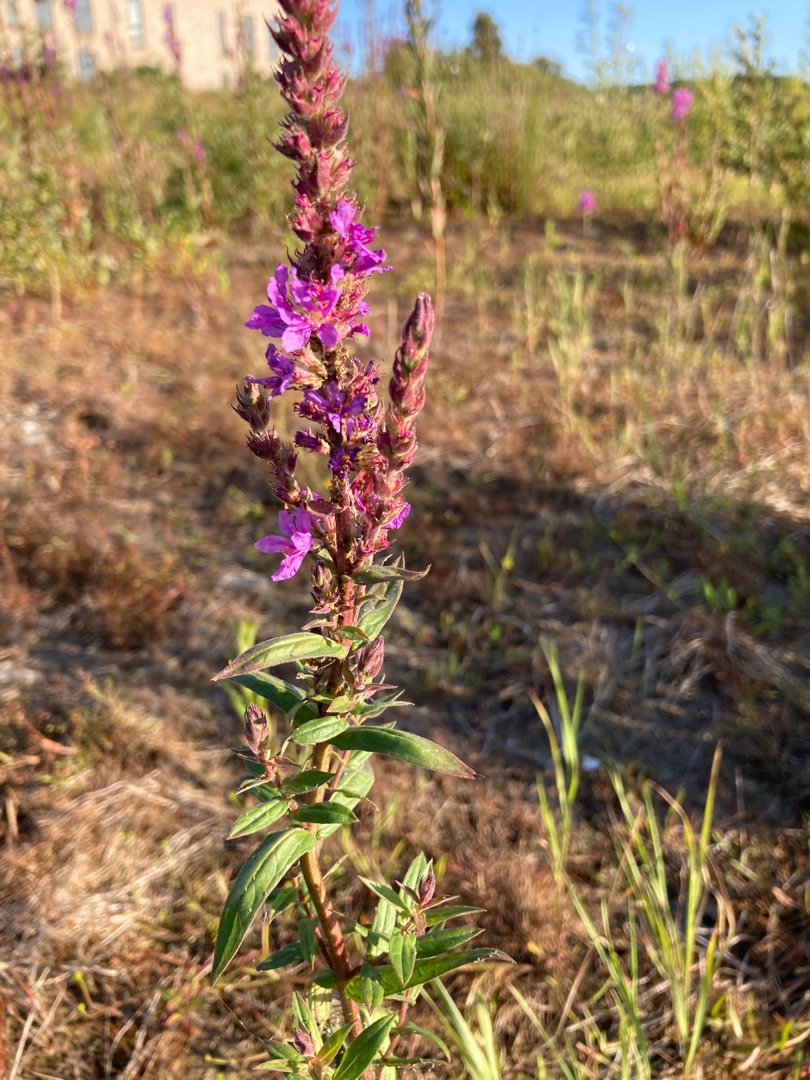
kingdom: Plantae
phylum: Tracheophyta
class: Magnoliopsida
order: Myrtales
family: Lythraceae
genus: Lythrum
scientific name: Lythrum salicaria
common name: Kattehale
